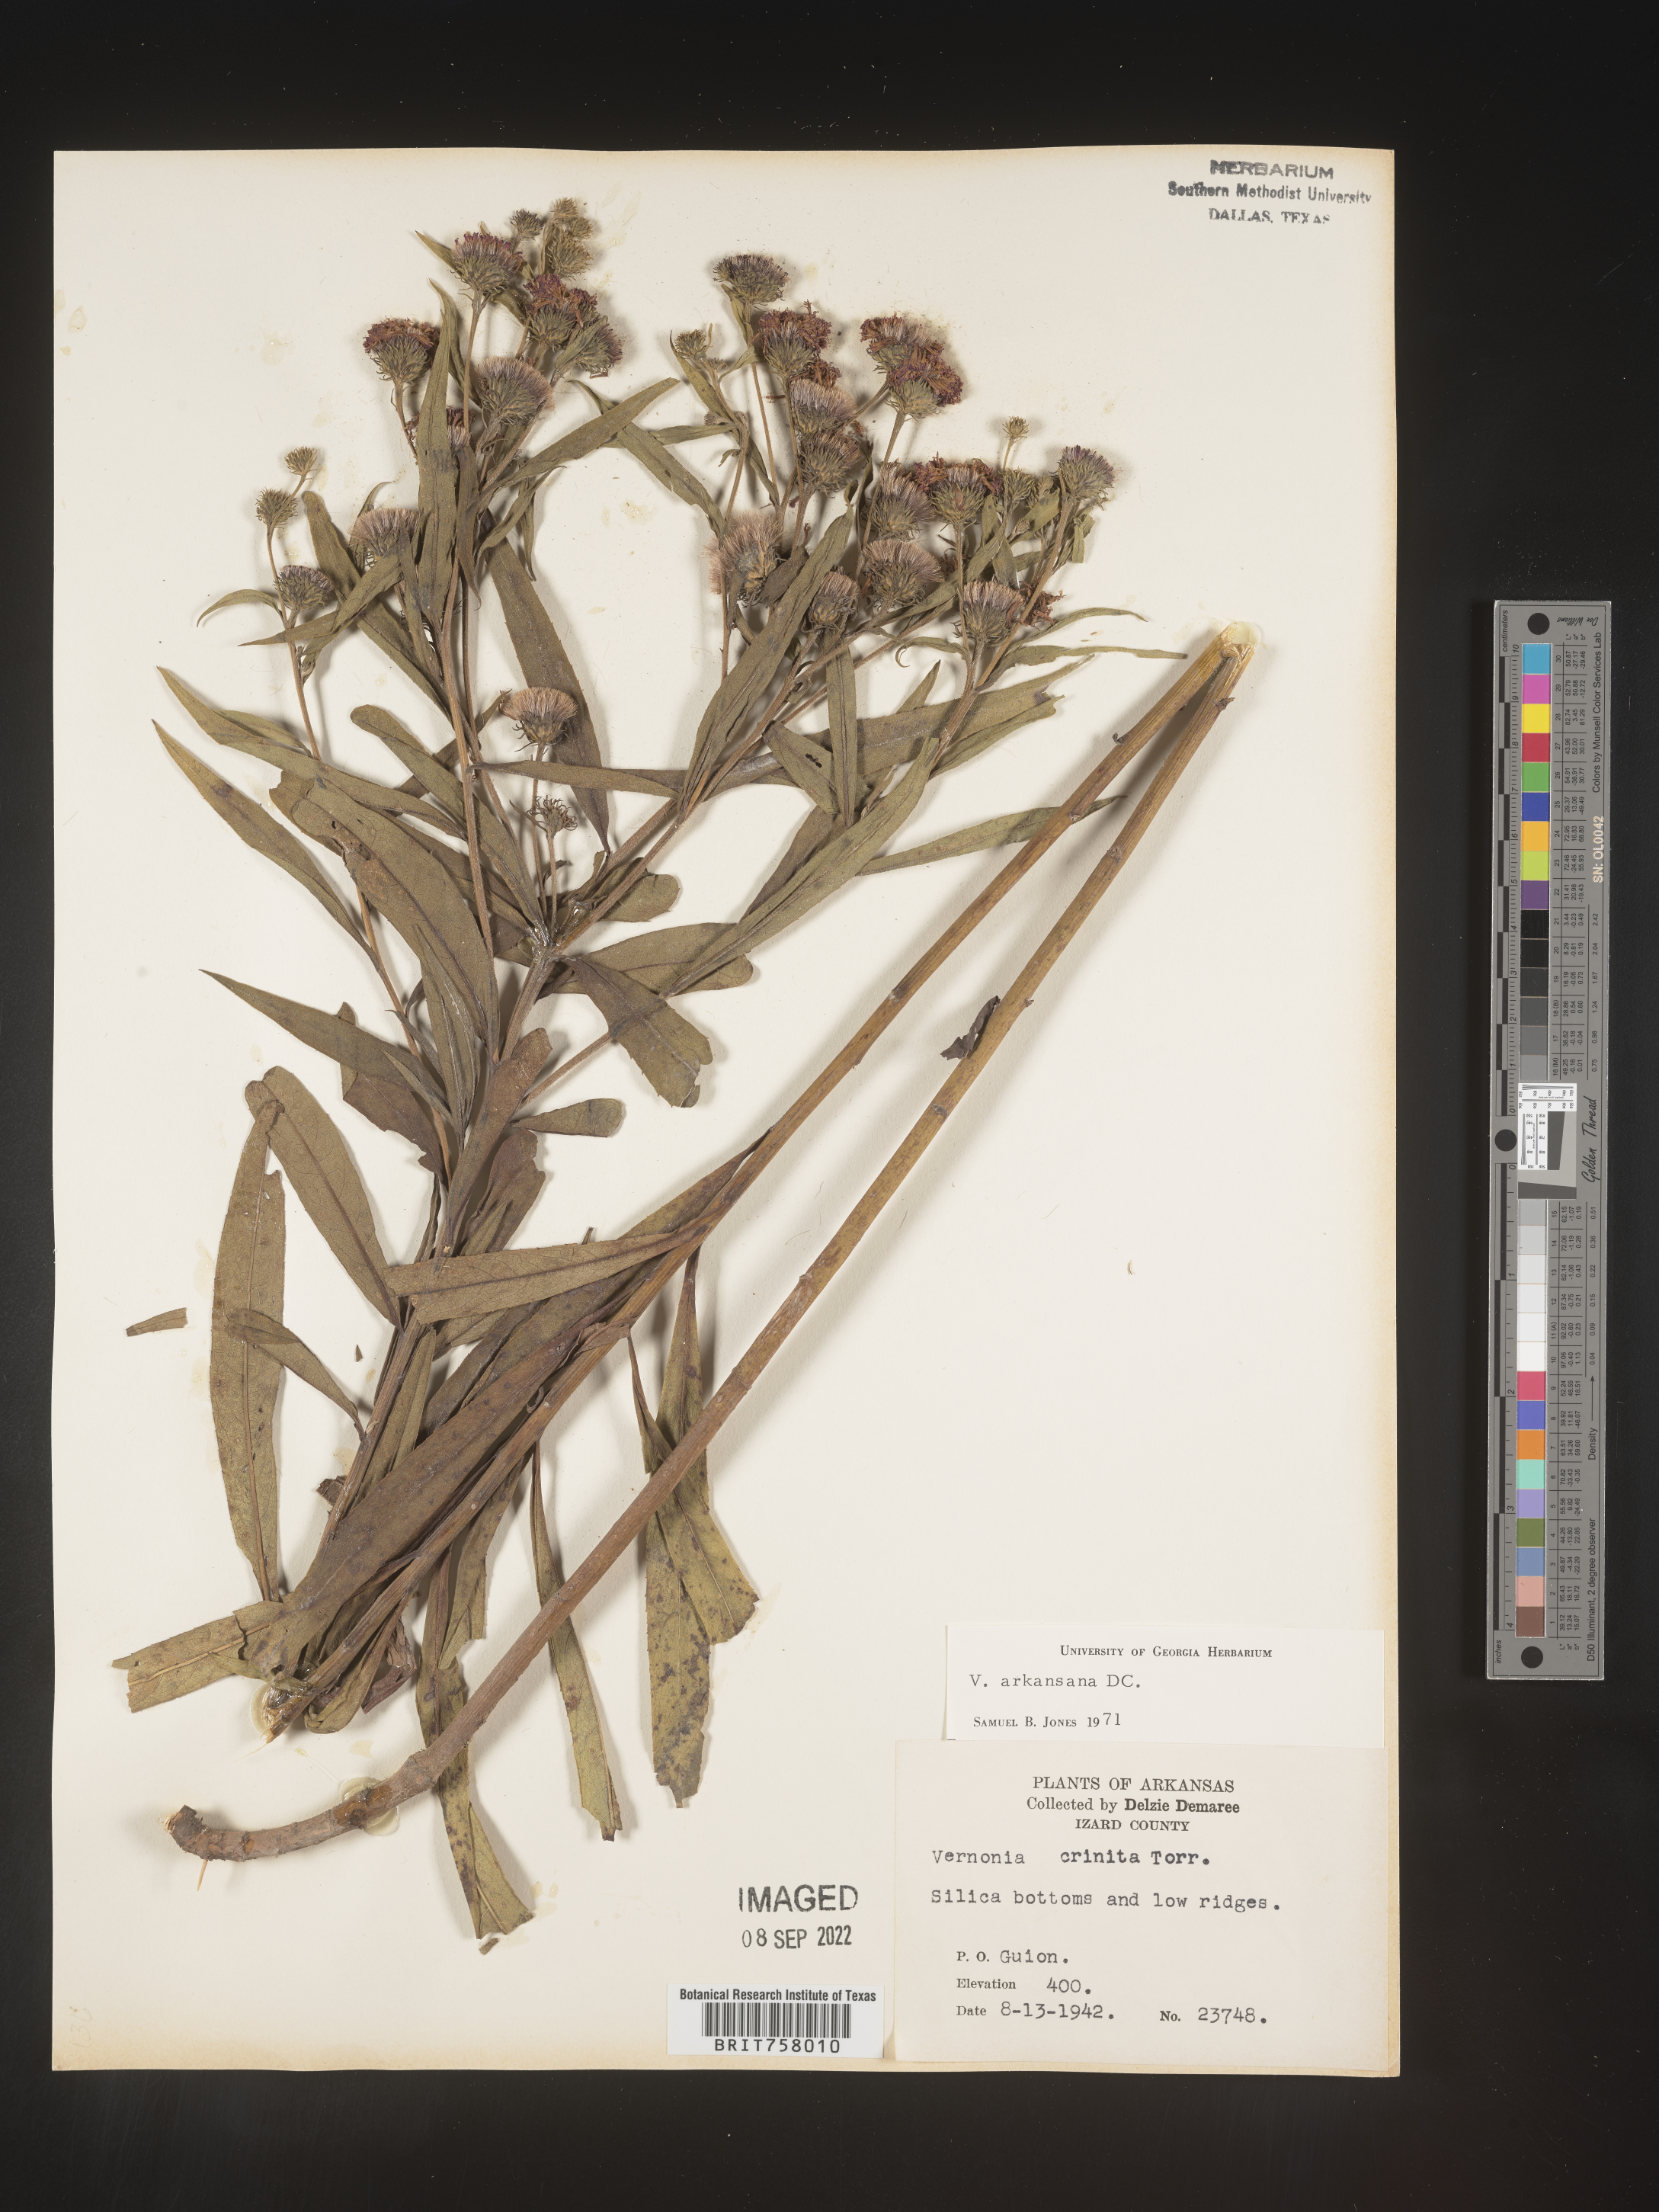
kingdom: Plantae
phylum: Tracheophyta
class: Magnoliopsida
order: Asterales
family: Asteraceae
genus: Vernonia
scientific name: Vernonia arkansana
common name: Ozark ironweed
